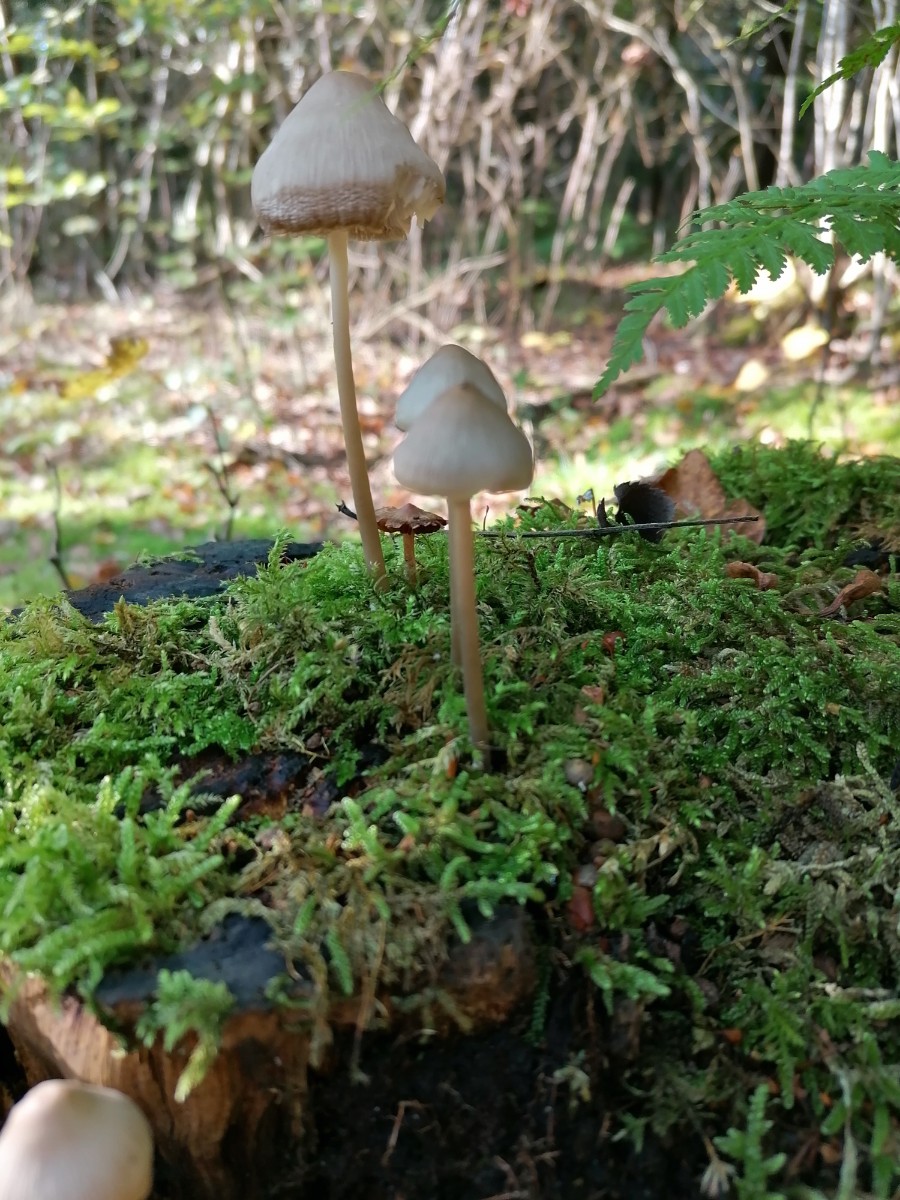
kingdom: Fungi
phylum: Basidiomycota
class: Agaricomycetes
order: Agaricales
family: Mycenaceae
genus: Mycena
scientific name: Mycena galericulata
